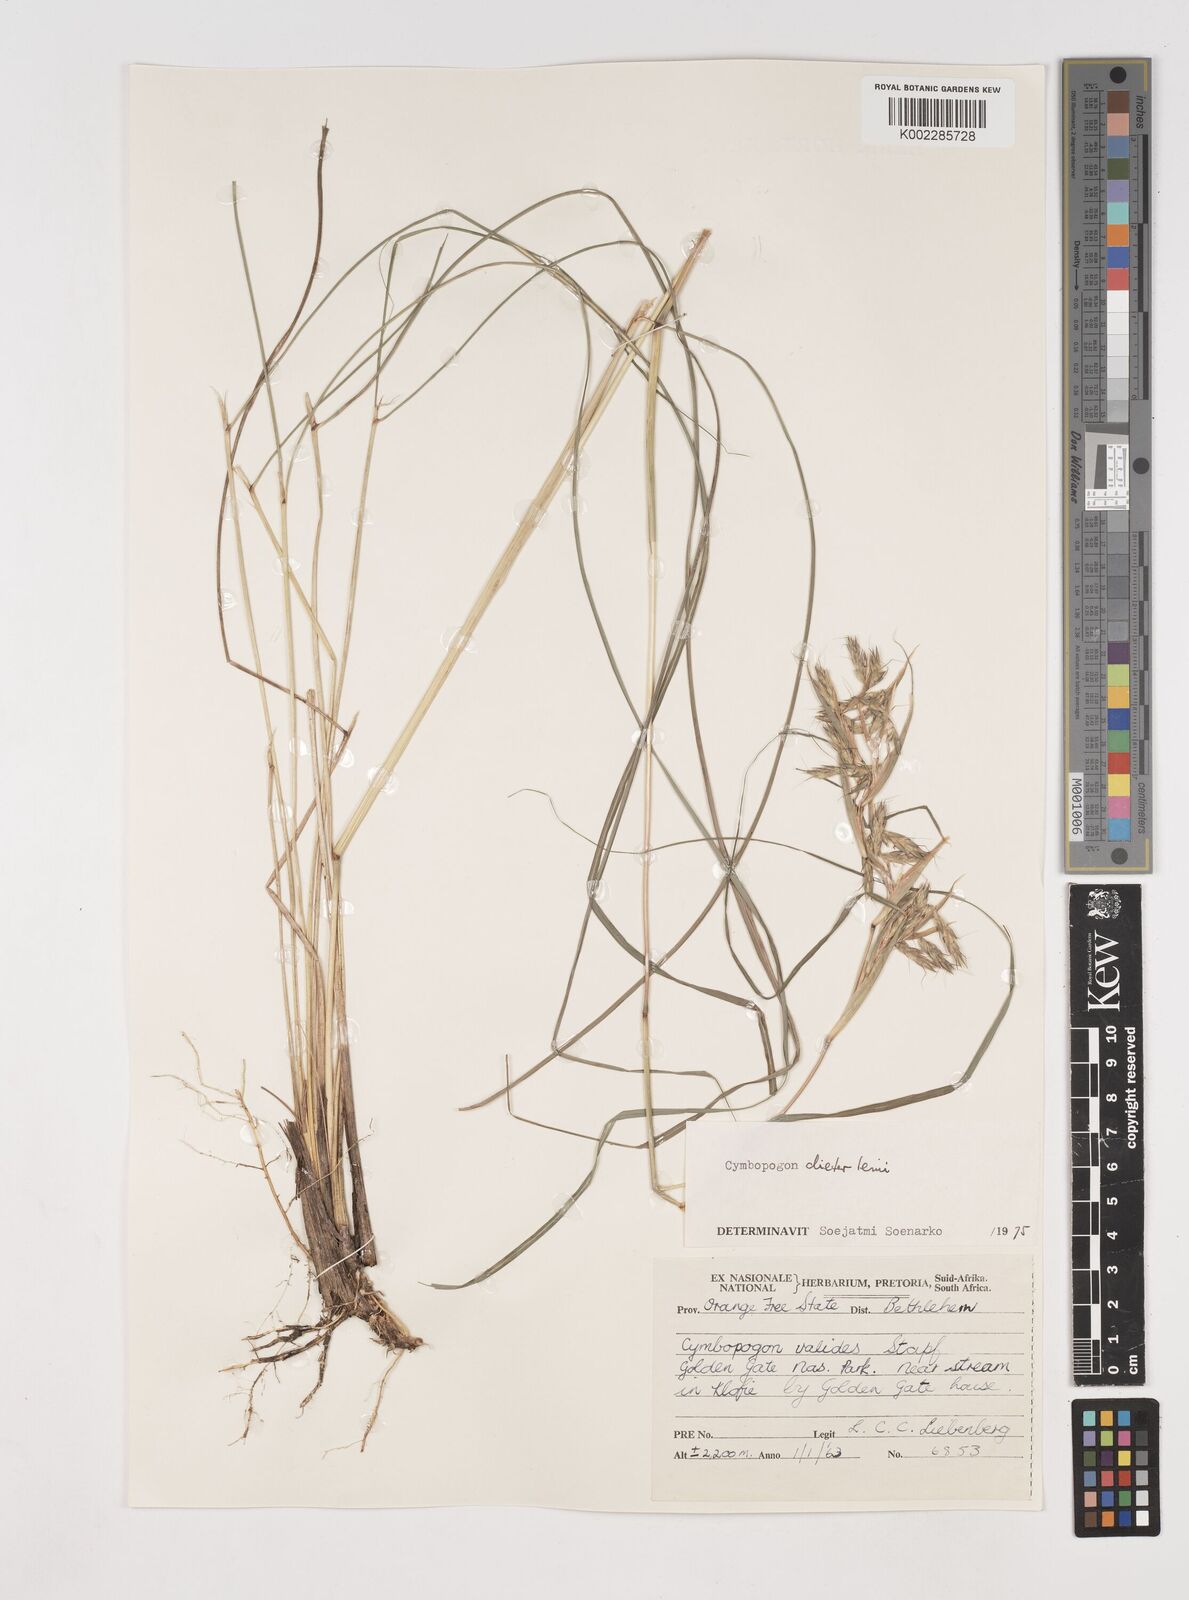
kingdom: Plantae
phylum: Tracheophyta
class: Liliopsida
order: Poales
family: Poaceae
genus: Cymbopogon
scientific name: Cymbopogon dieterlenii
